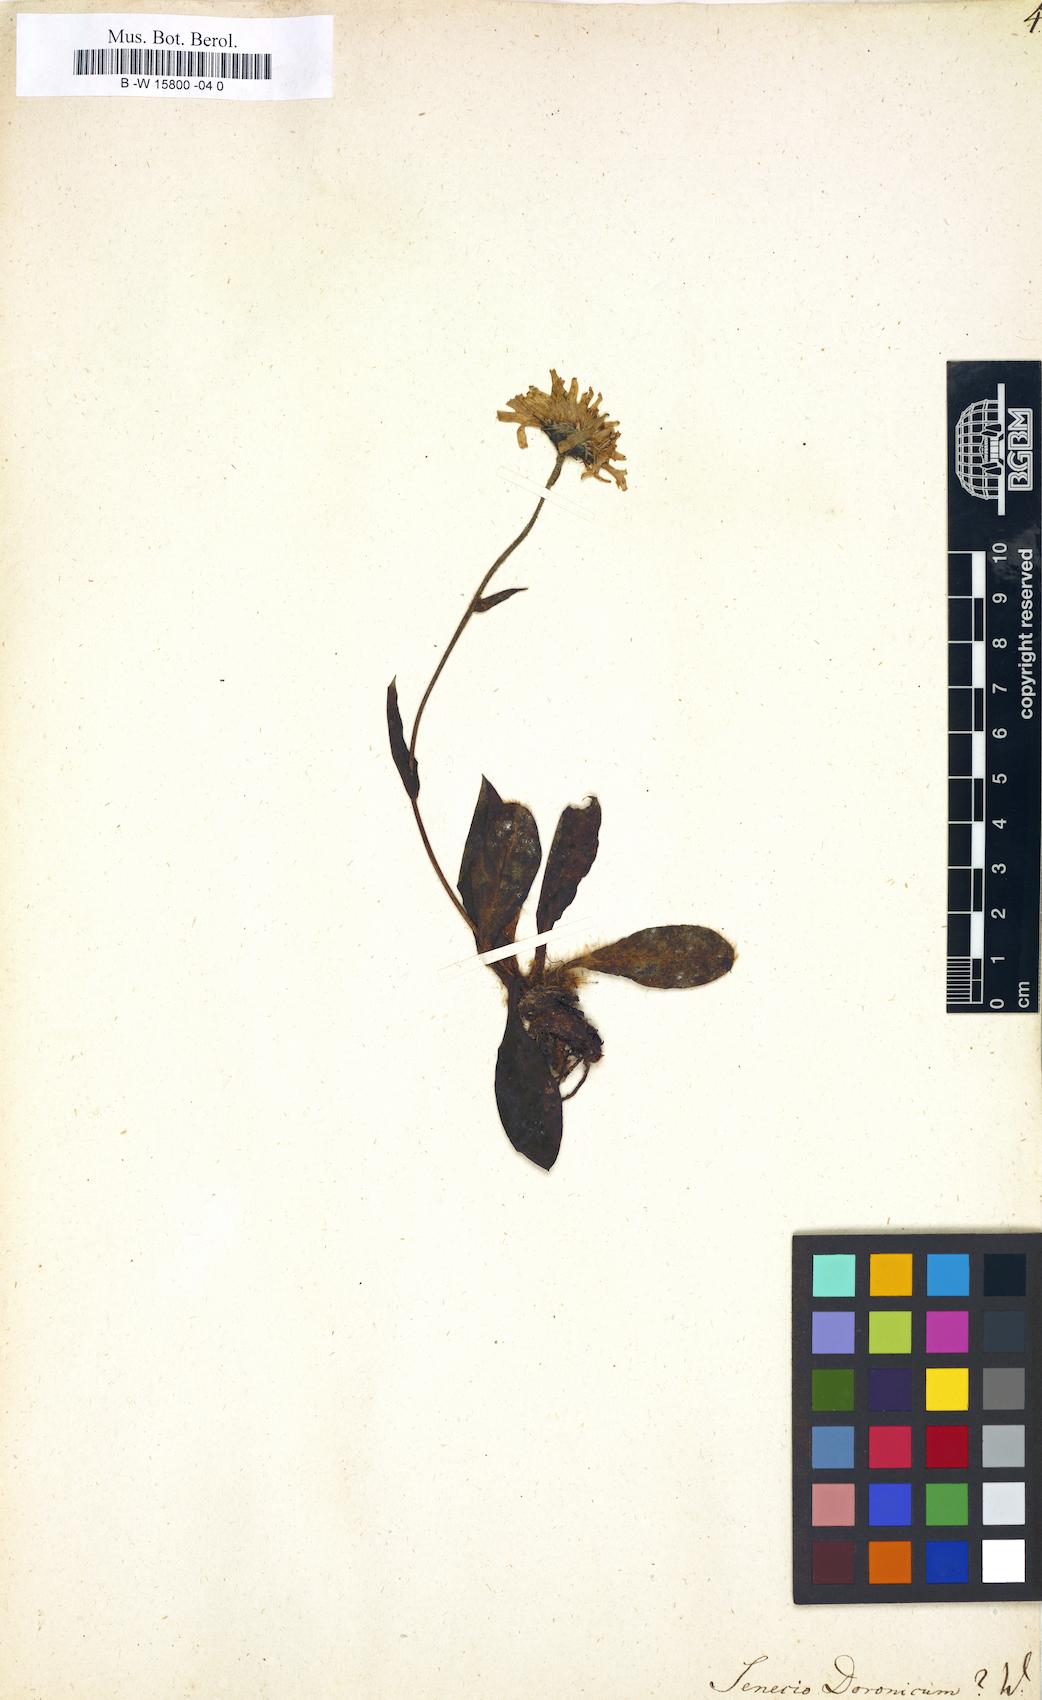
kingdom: Plantae
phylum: Tracheophyta
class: Magnoliopsida
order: Asterales
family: Asteraceae
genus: Senecio
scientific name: Senecio doronicum
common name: Chamois ragwort
